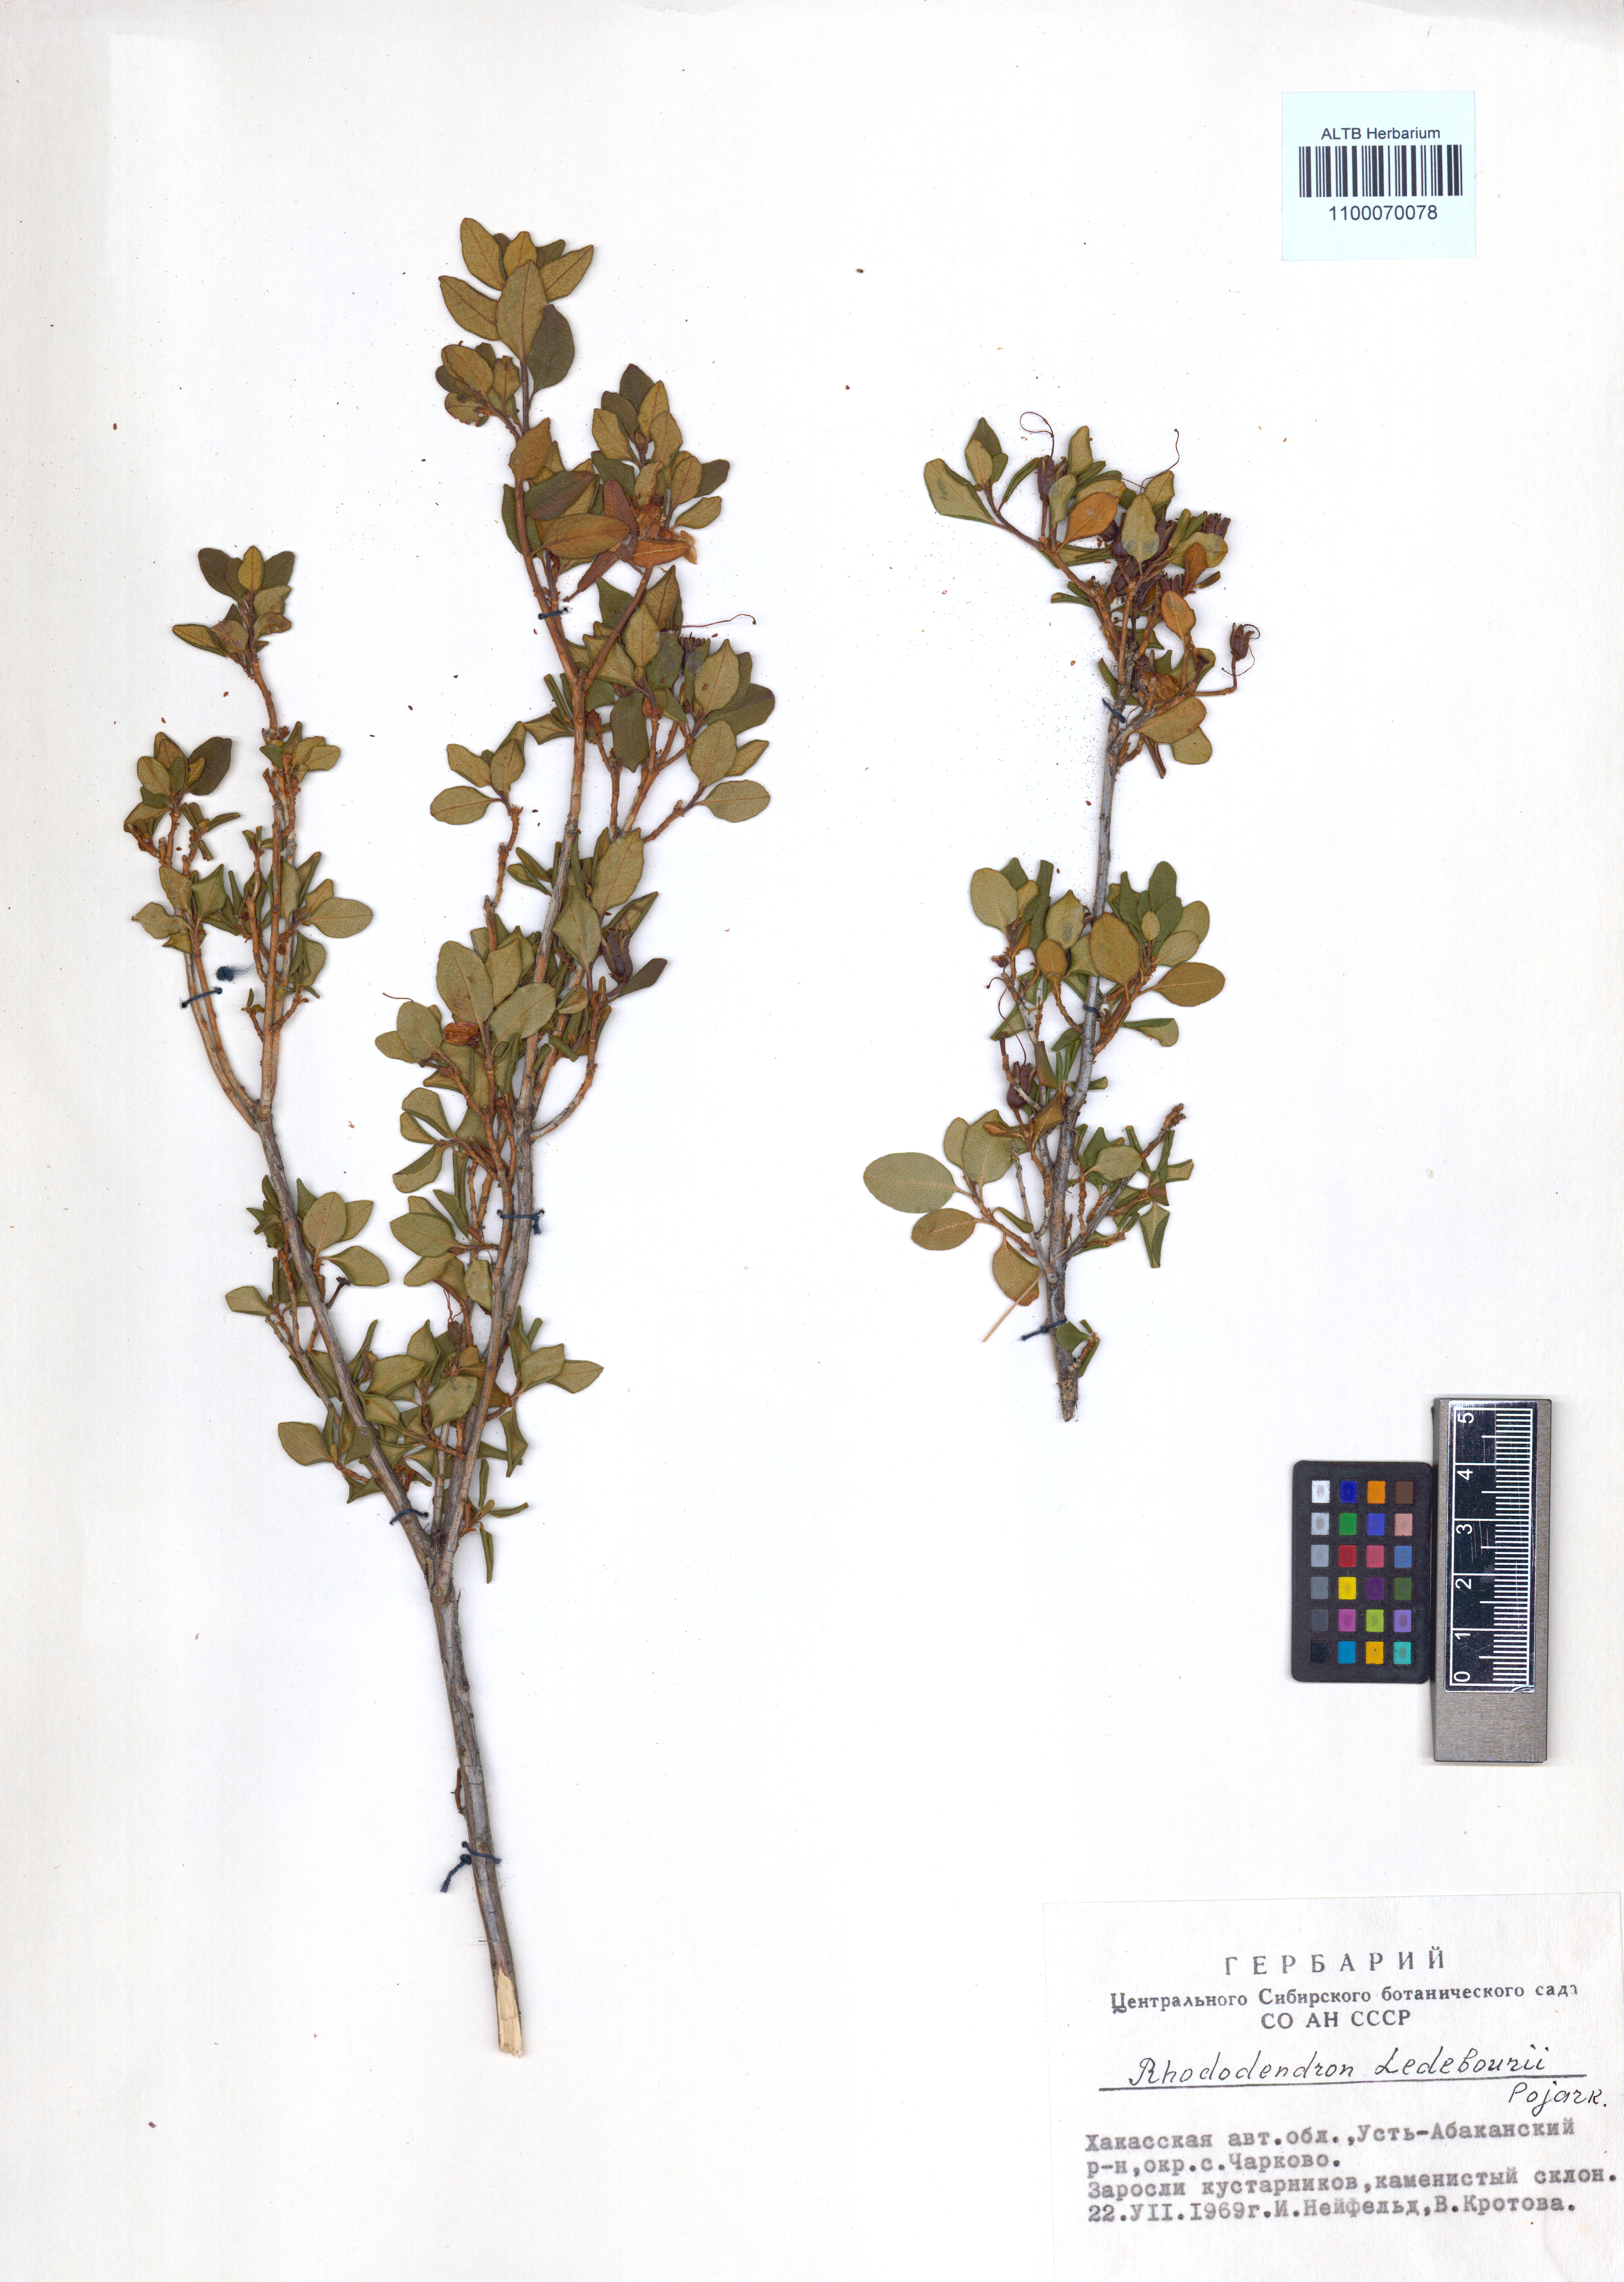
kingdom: Plantae
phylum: Tracheophyta
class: Magnoliopsida
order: Ericales
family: Ericaceae
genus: Rhododendron
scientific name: Rhododendron dauricum
